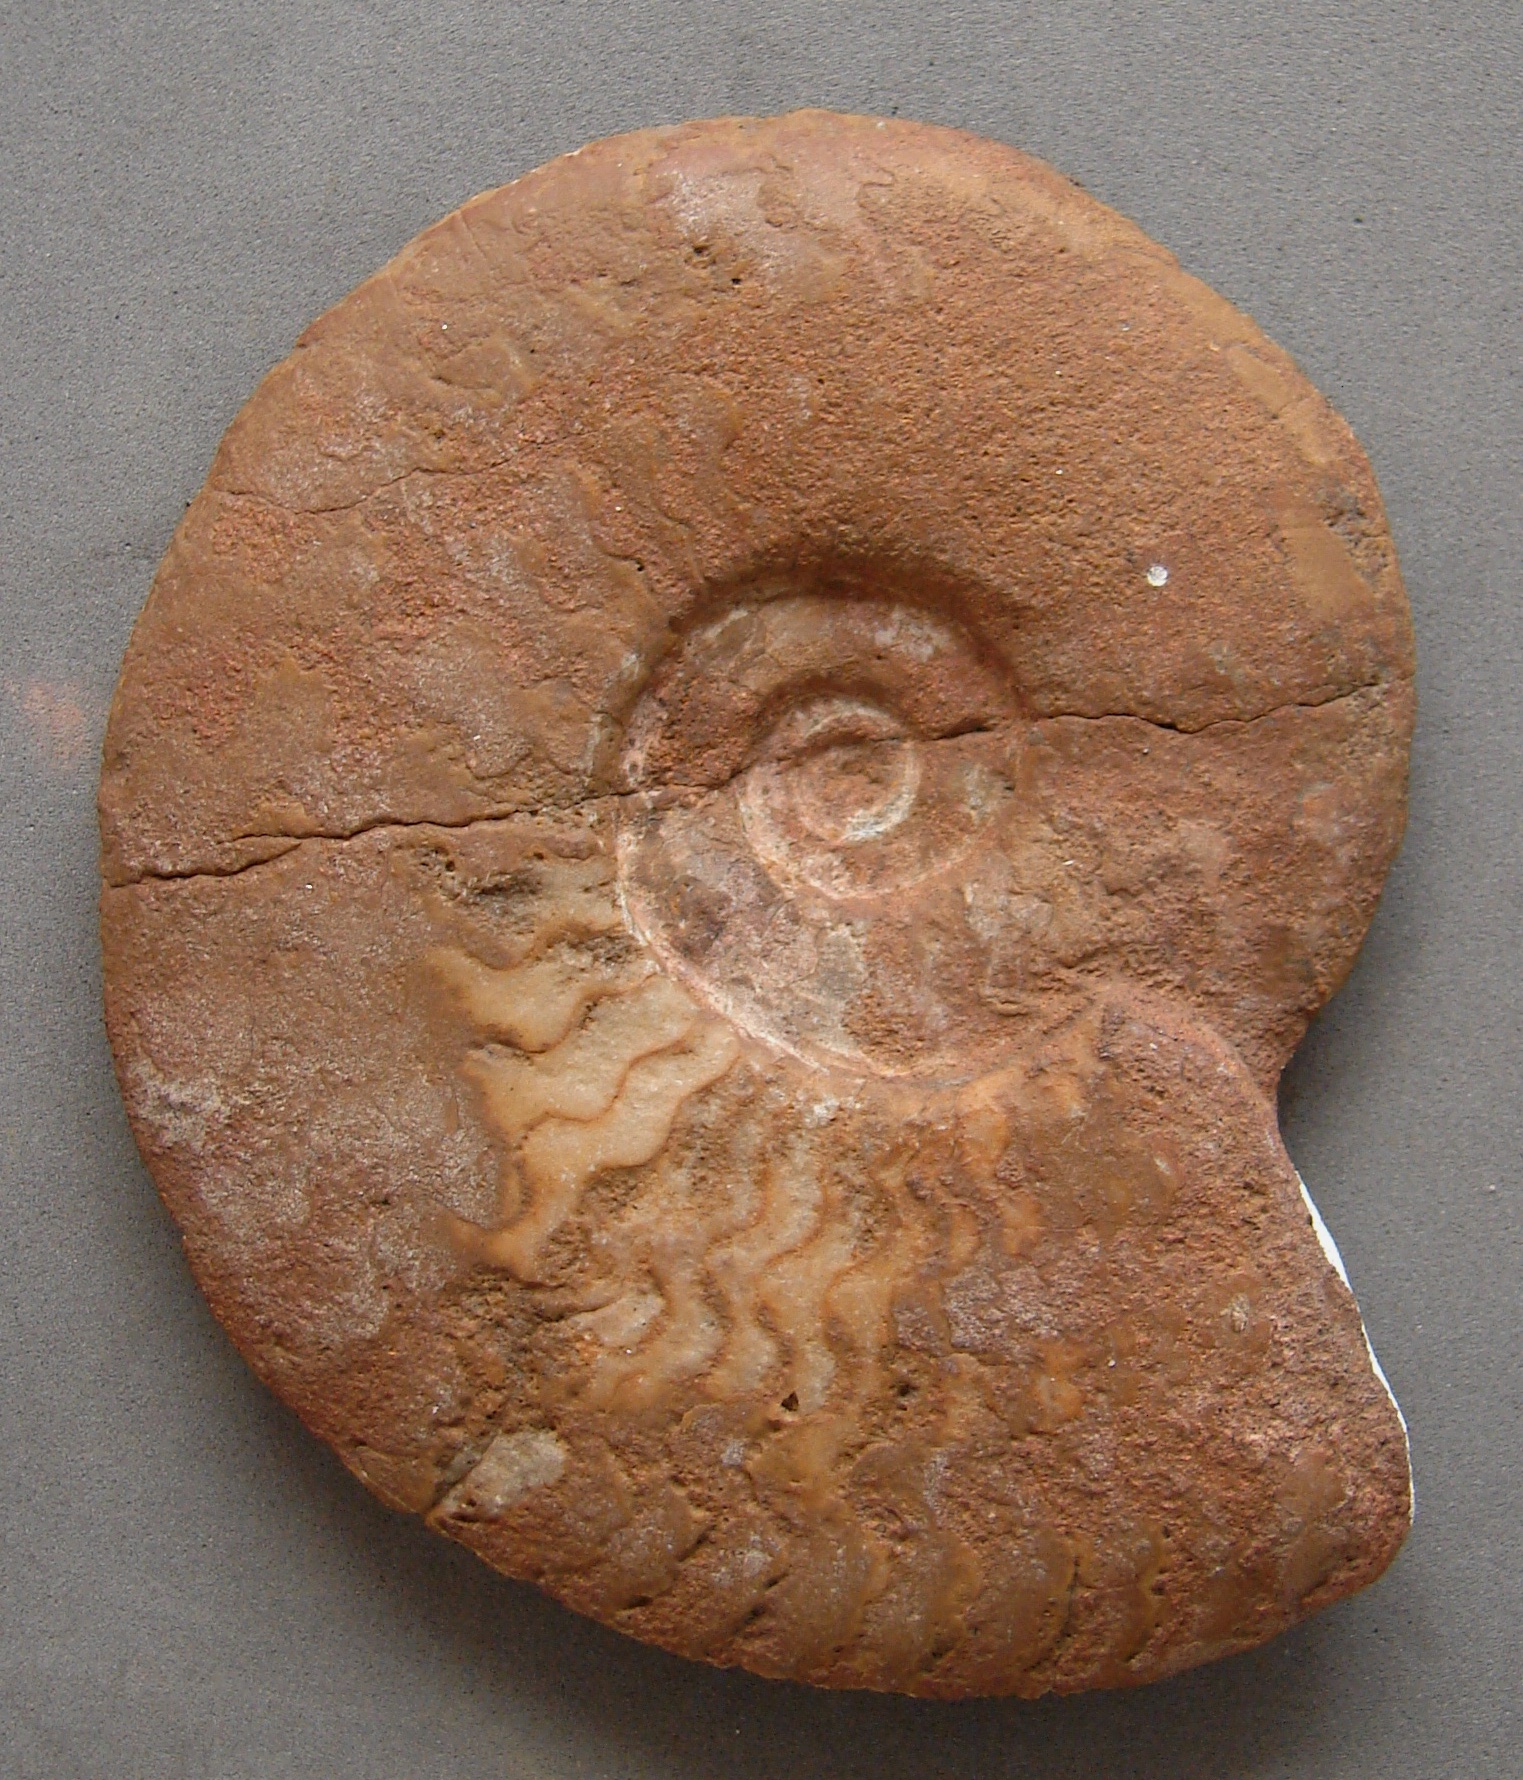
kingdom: Animalia
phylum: Mollusca
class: Cephalopoda
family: Oxynoticeratidae
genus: Oxynoticeras
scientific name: Oxynoticeras
